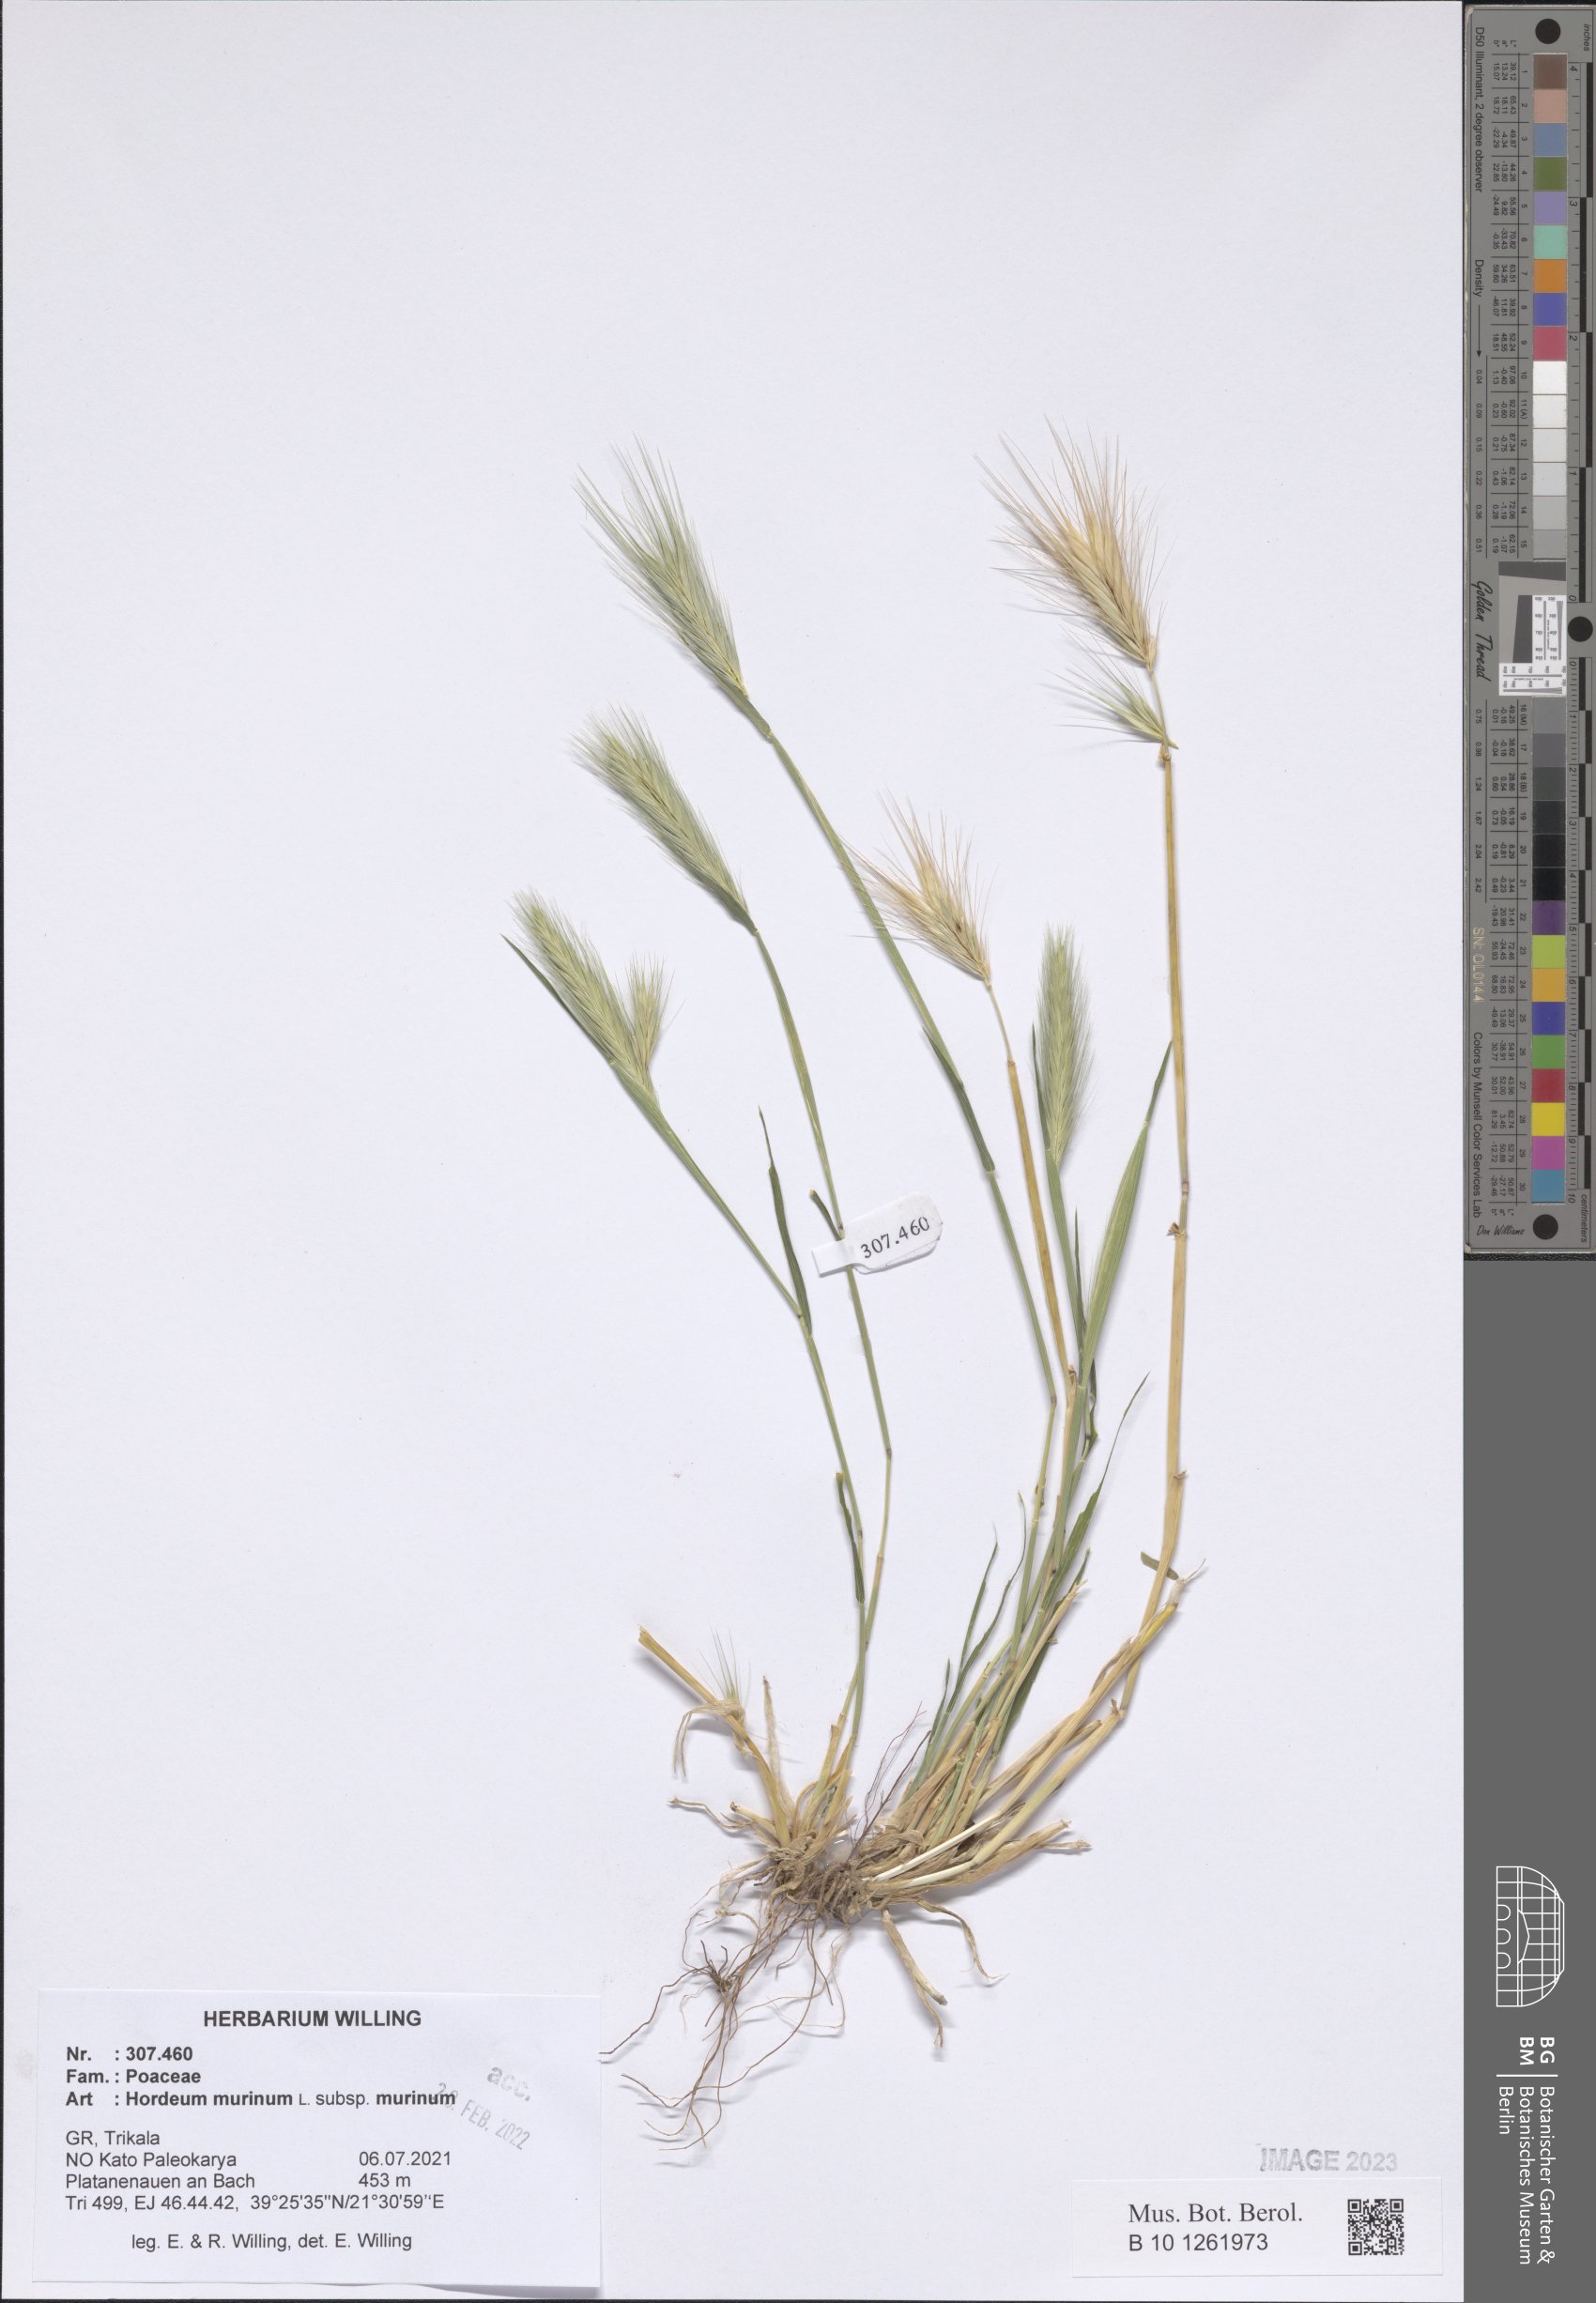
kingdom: Plantae
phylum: Tracheophyta
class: Liliopsida
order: Poales
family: Poaceae
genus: Hordeum
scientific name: Hordeum murinum
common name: Wall barley
